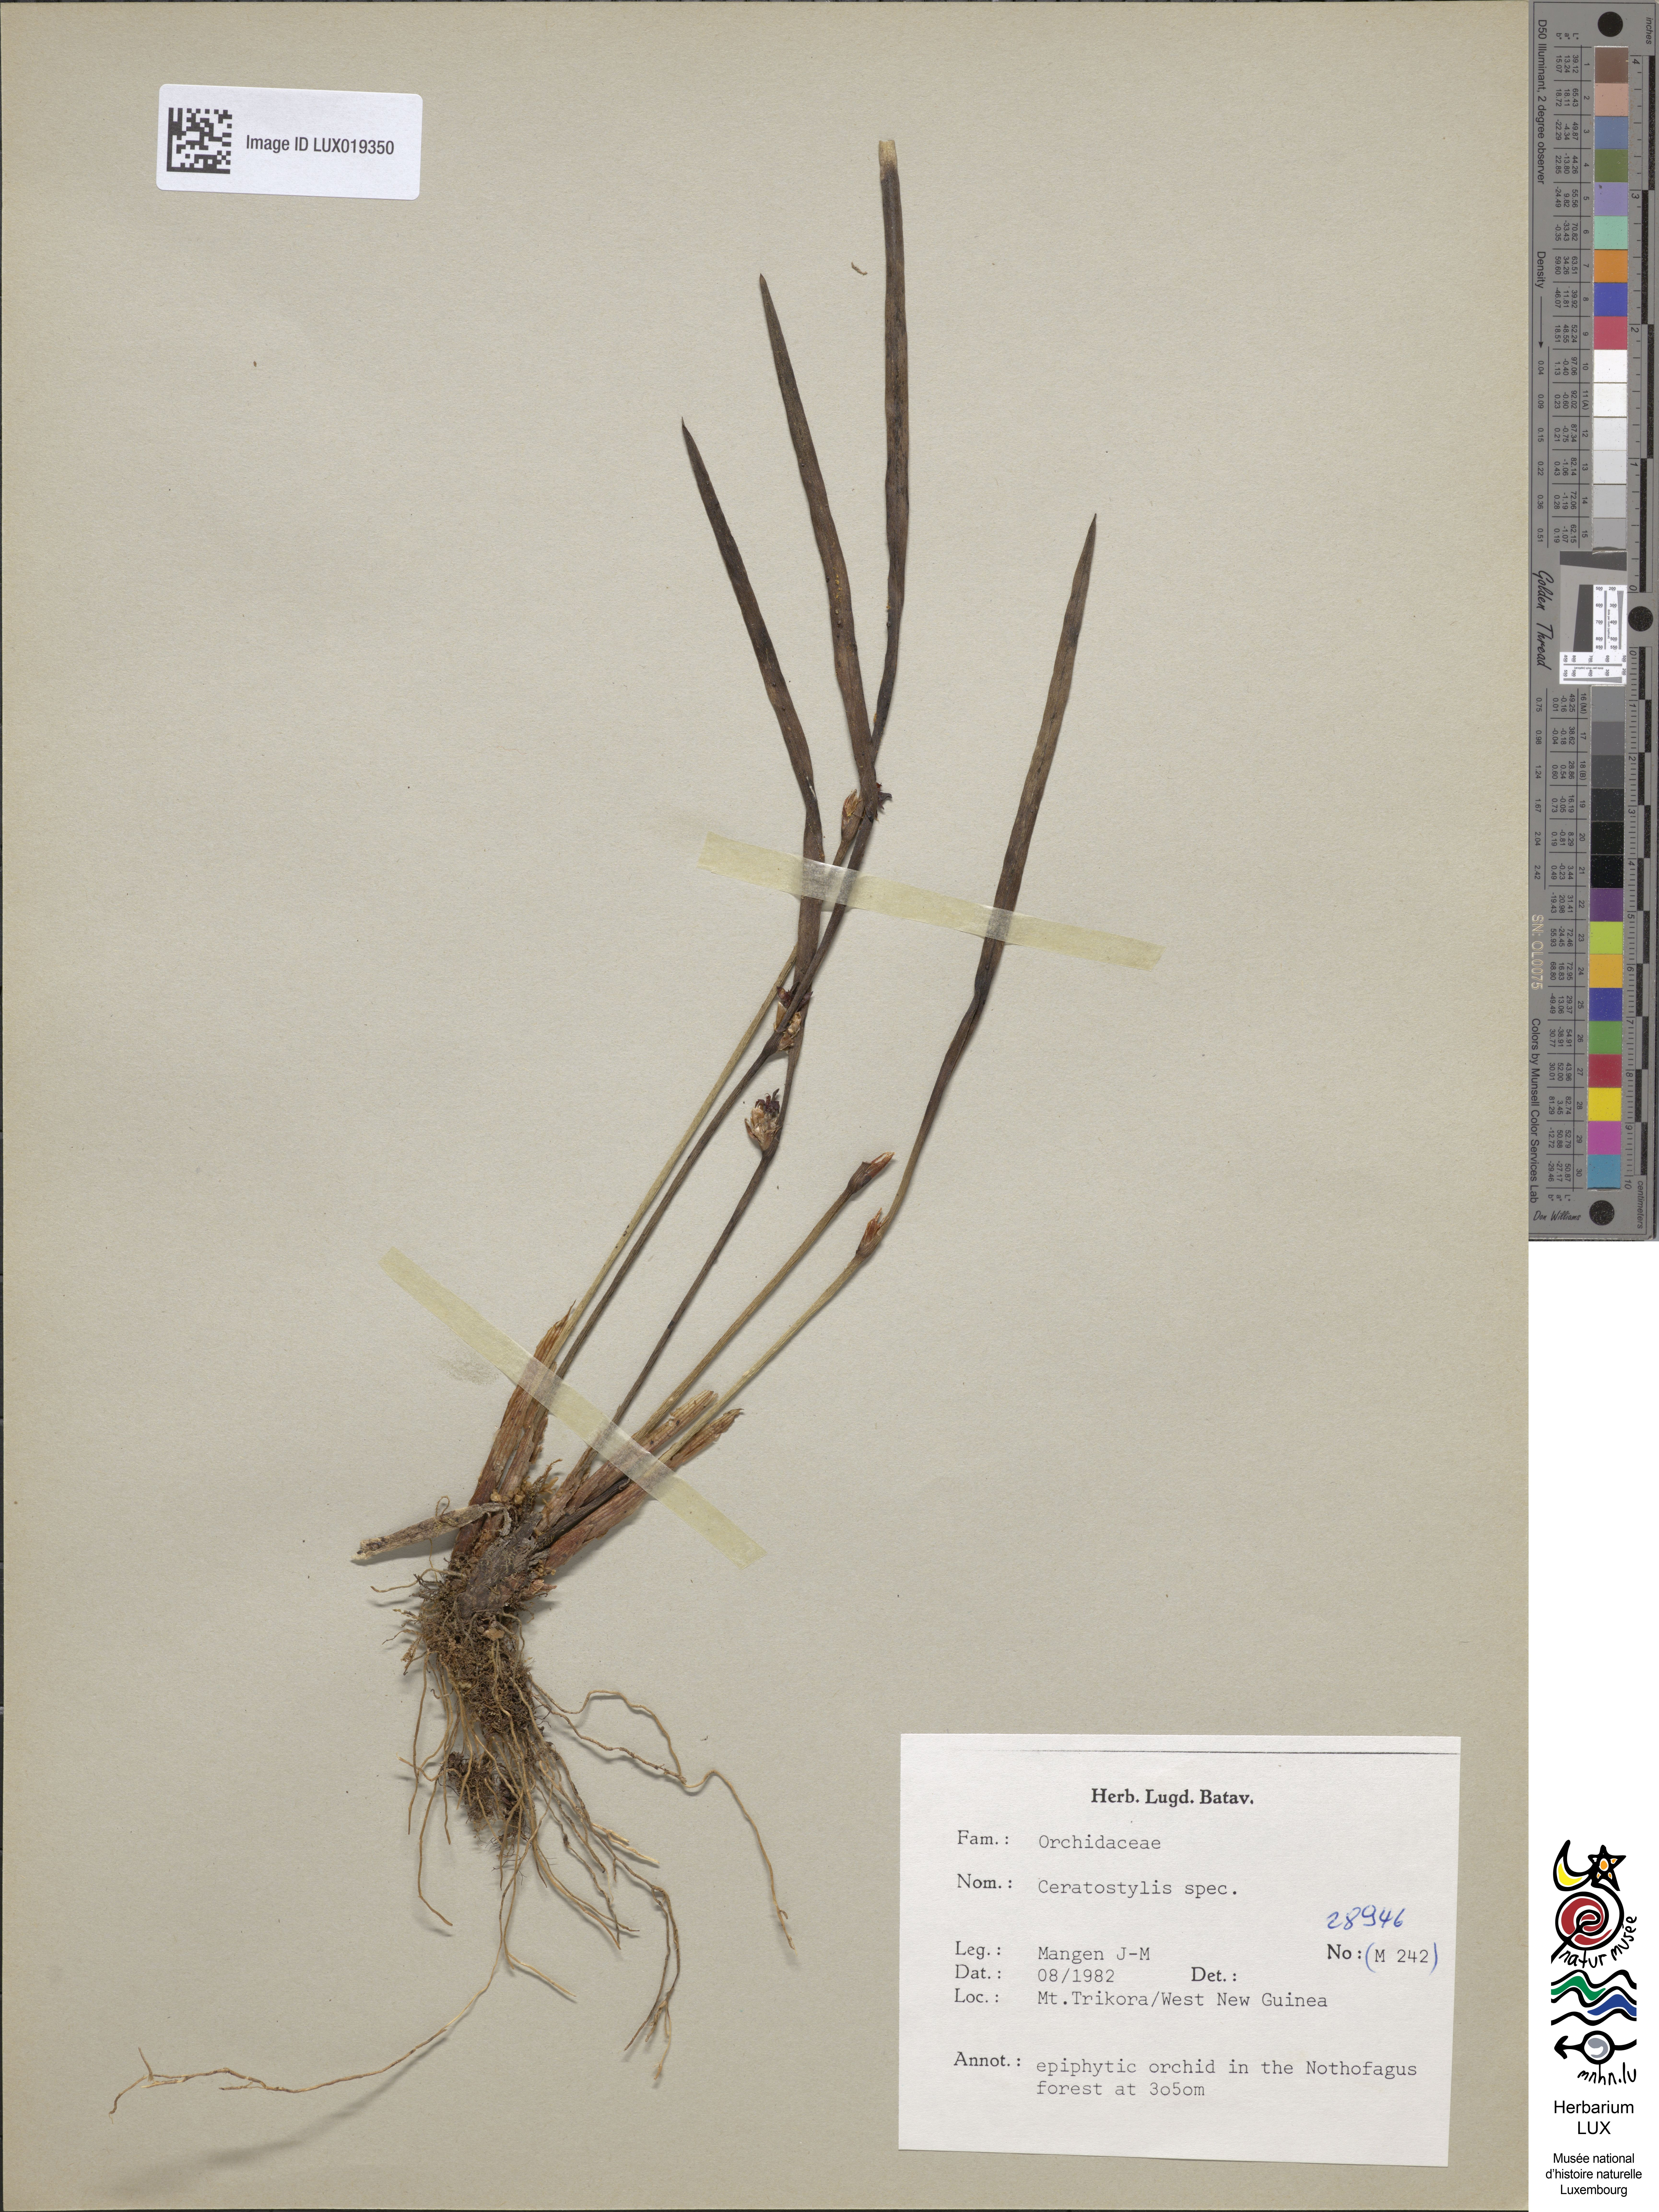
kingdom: Plantae
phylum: Tracheophyta
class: Liliopsida
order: Asparagales
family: Orchidaceae
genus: Ceratostylis
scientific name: Ceratostylis
